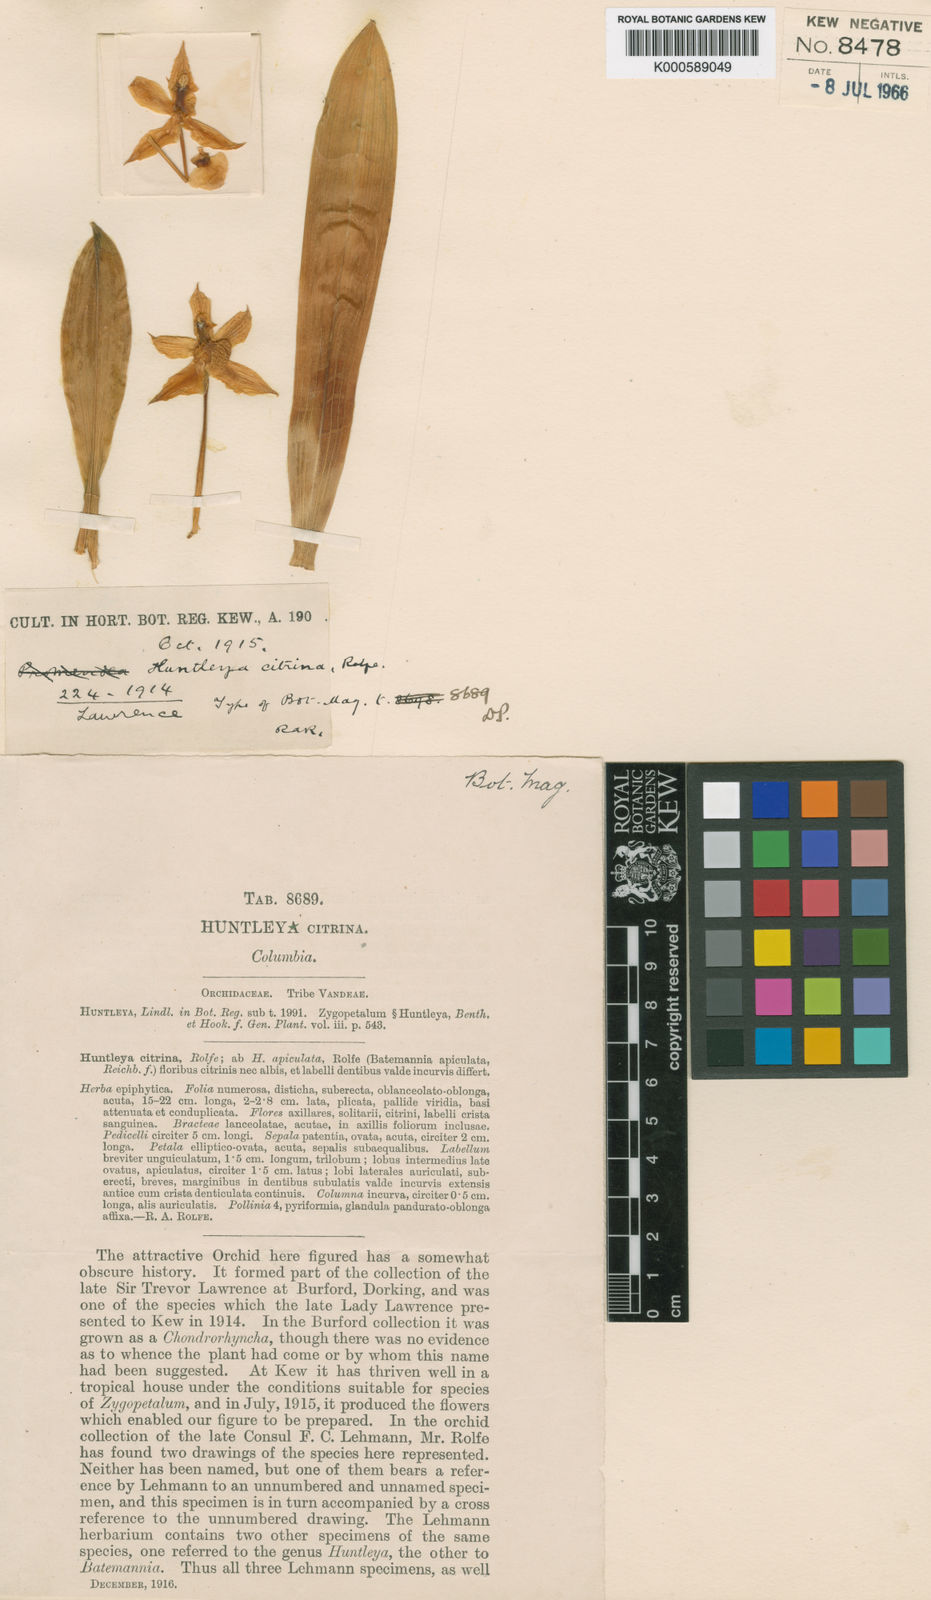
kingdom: Plantae
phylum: Tracheophyta
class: Liliopsida
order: Asparagales
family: Orchidaceae
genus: Huntleya
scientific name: Huntleya citrina
